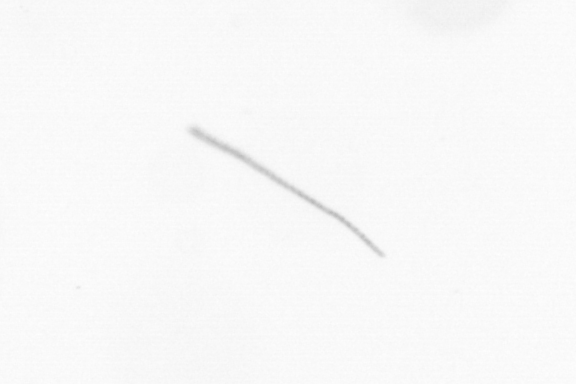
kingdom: Chromista
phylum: Ochrophyta
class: Bacillariophyceae
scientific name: Bacillariophyceae
